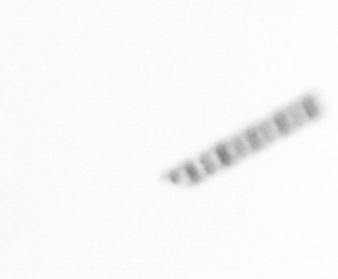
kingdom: Chromista
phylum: Ochrophyta
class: Bacillariophyceae
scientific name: Bacillariophyceae
